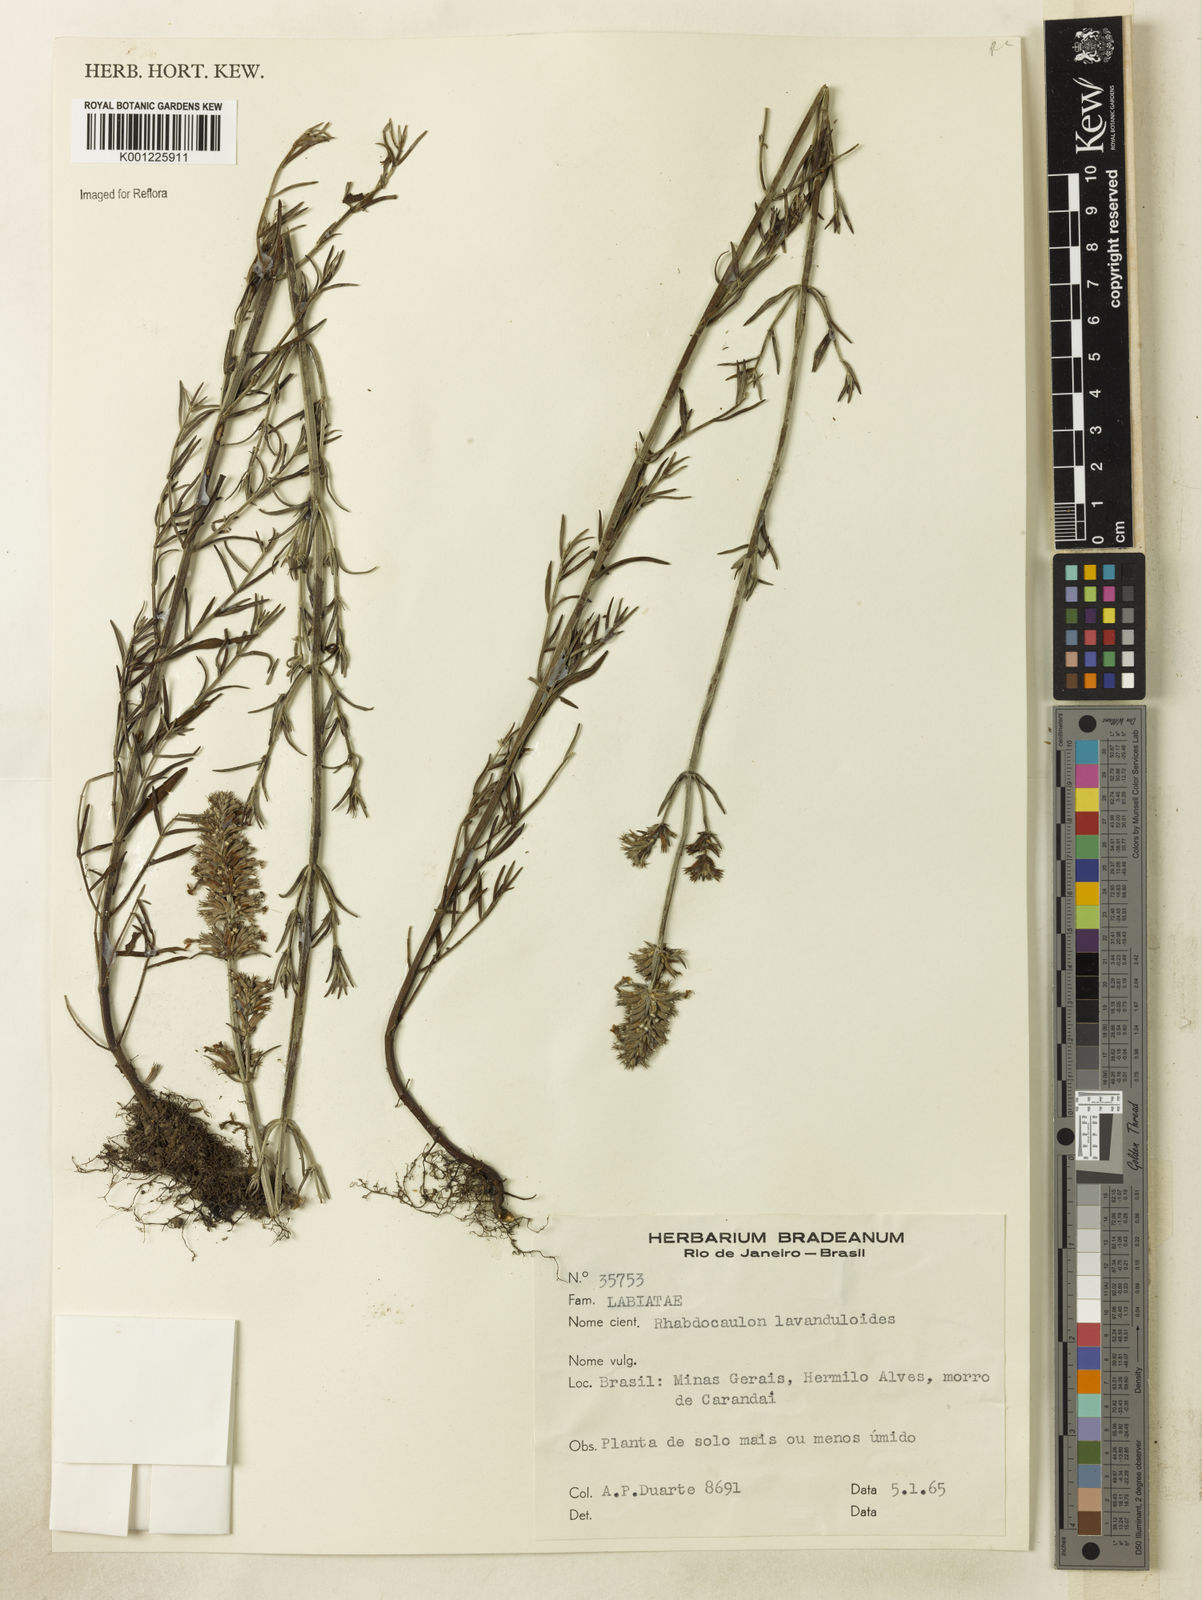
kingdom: Plantae
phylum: Tracheophyta
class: Magnoliopsida
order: Lamiales
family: Lamiaceae
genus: Rhabdocaulon
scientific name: Rhabdocaulon lavanduloides
